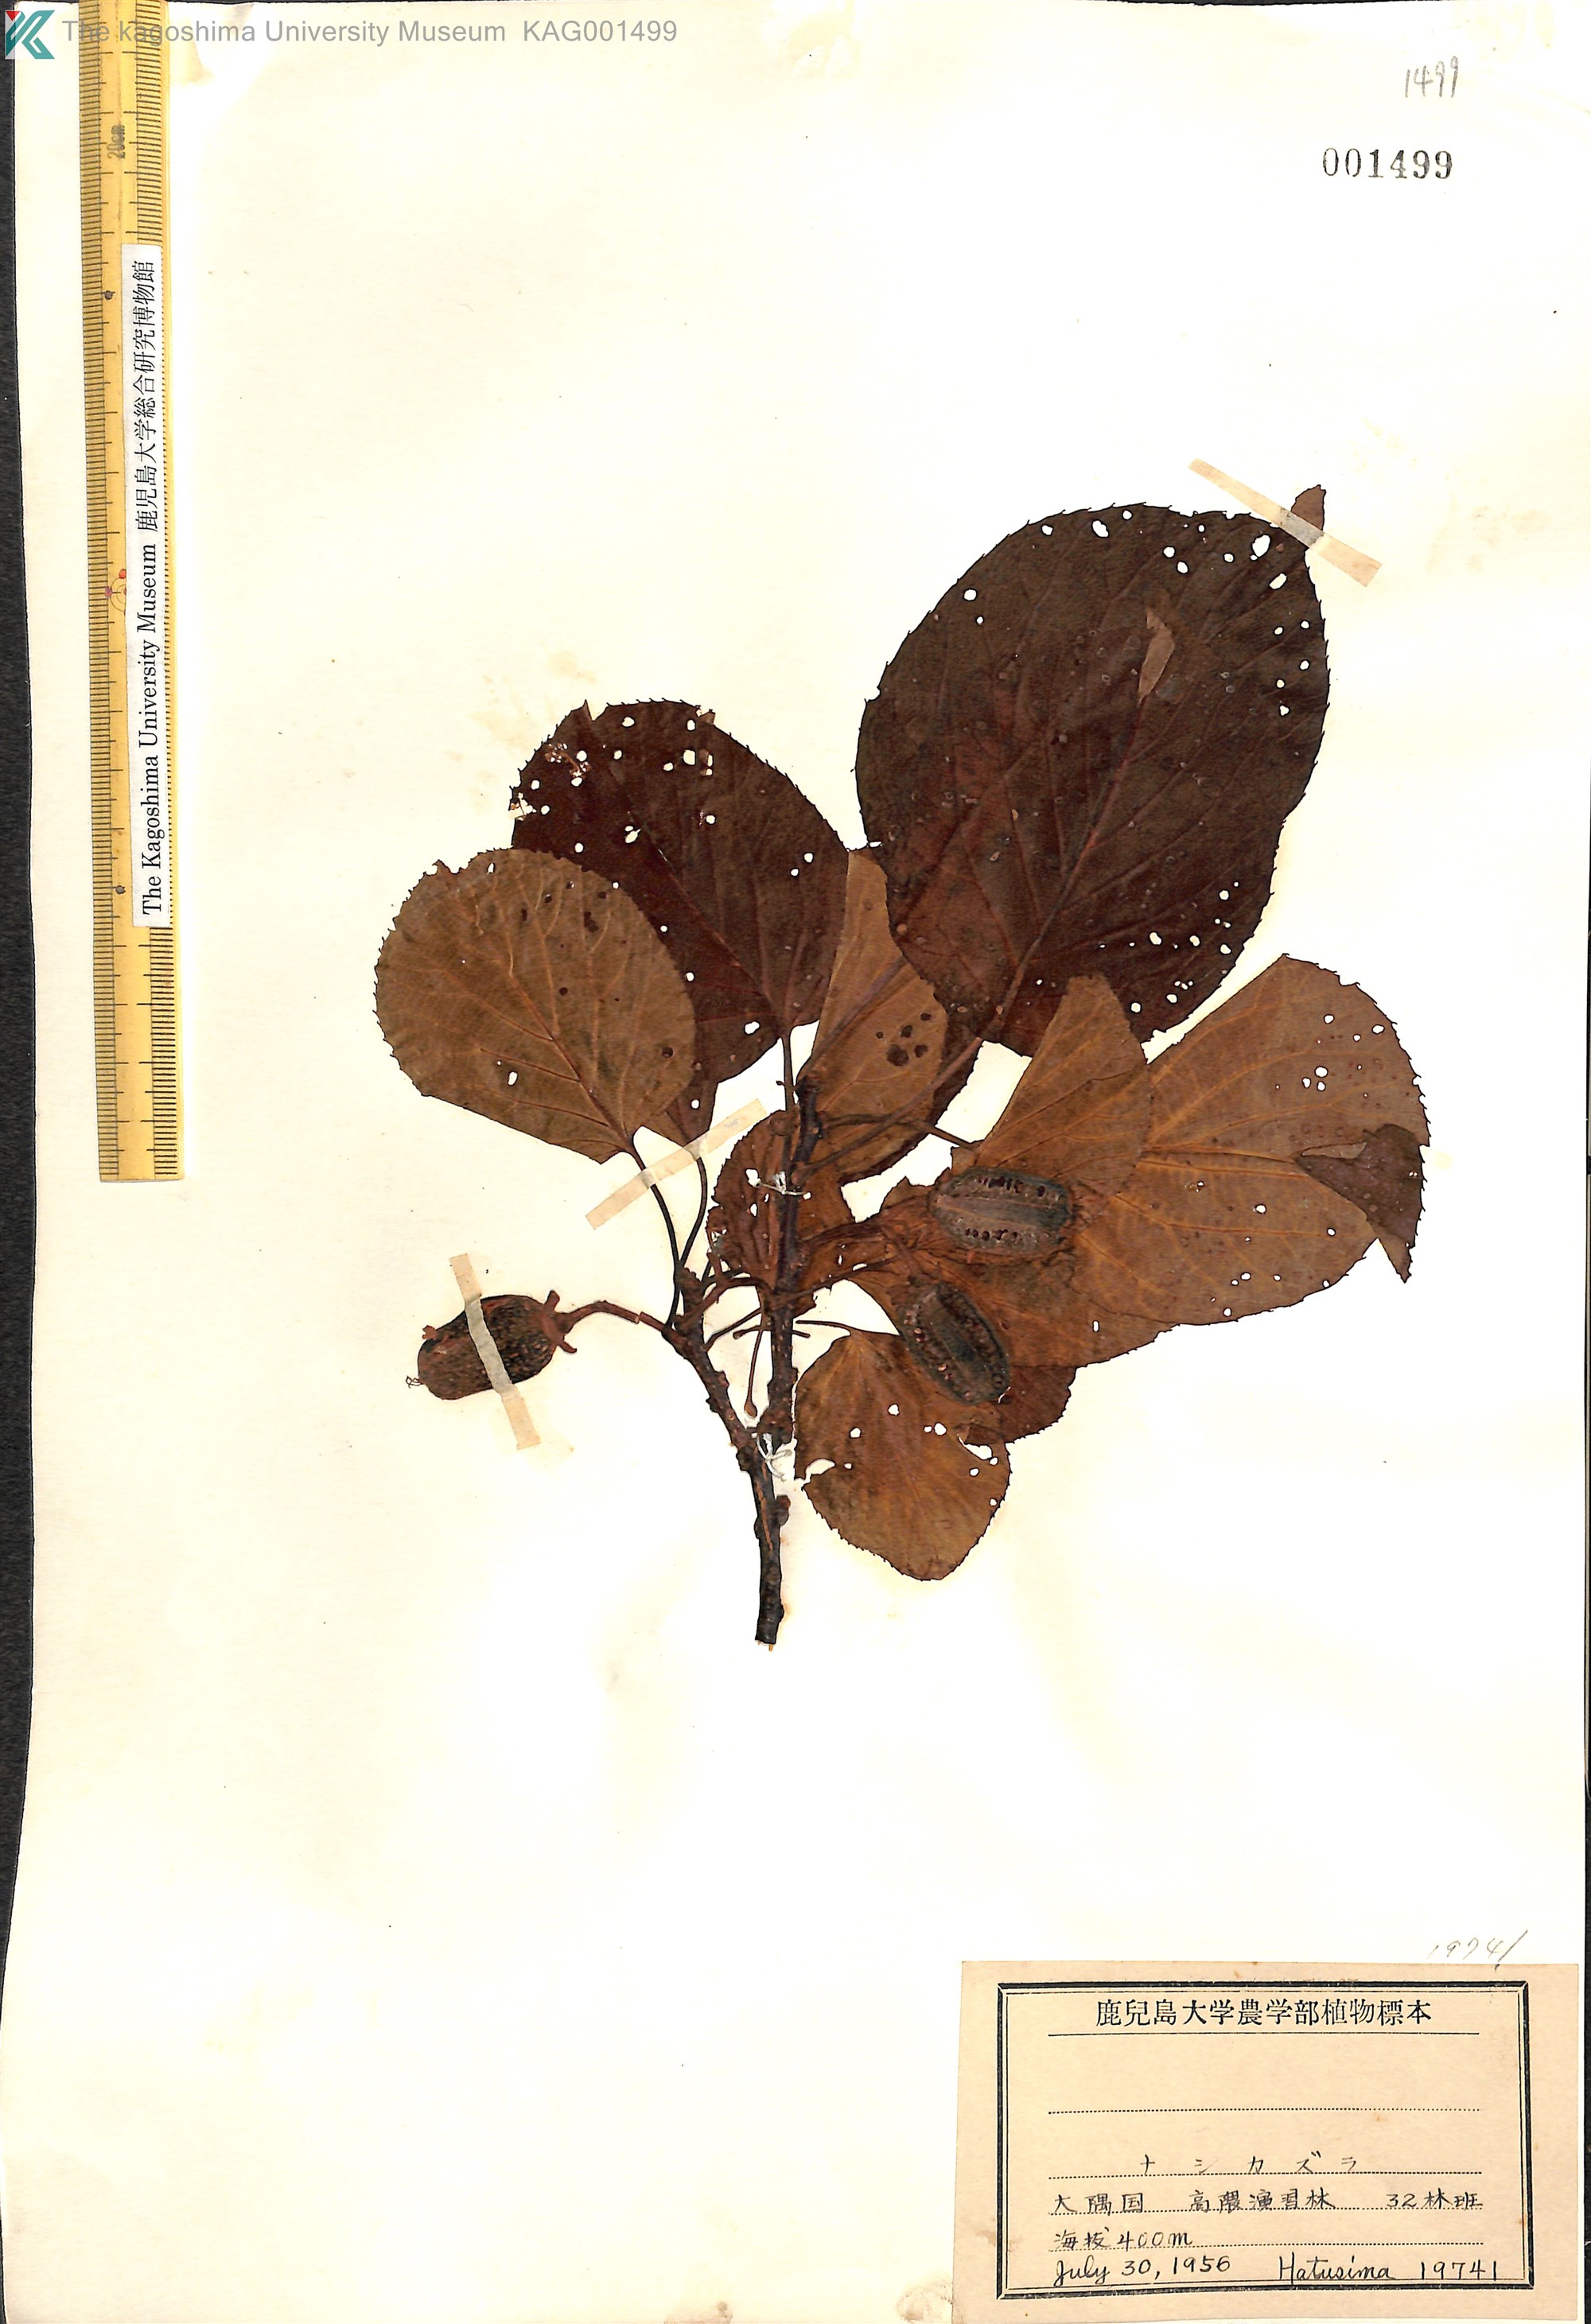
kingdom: Plantae
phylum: Tracheophyta
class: Magnoliopsida
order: Ericales
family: Actinidiaceae
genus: Actinidia
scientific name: Actinidia
